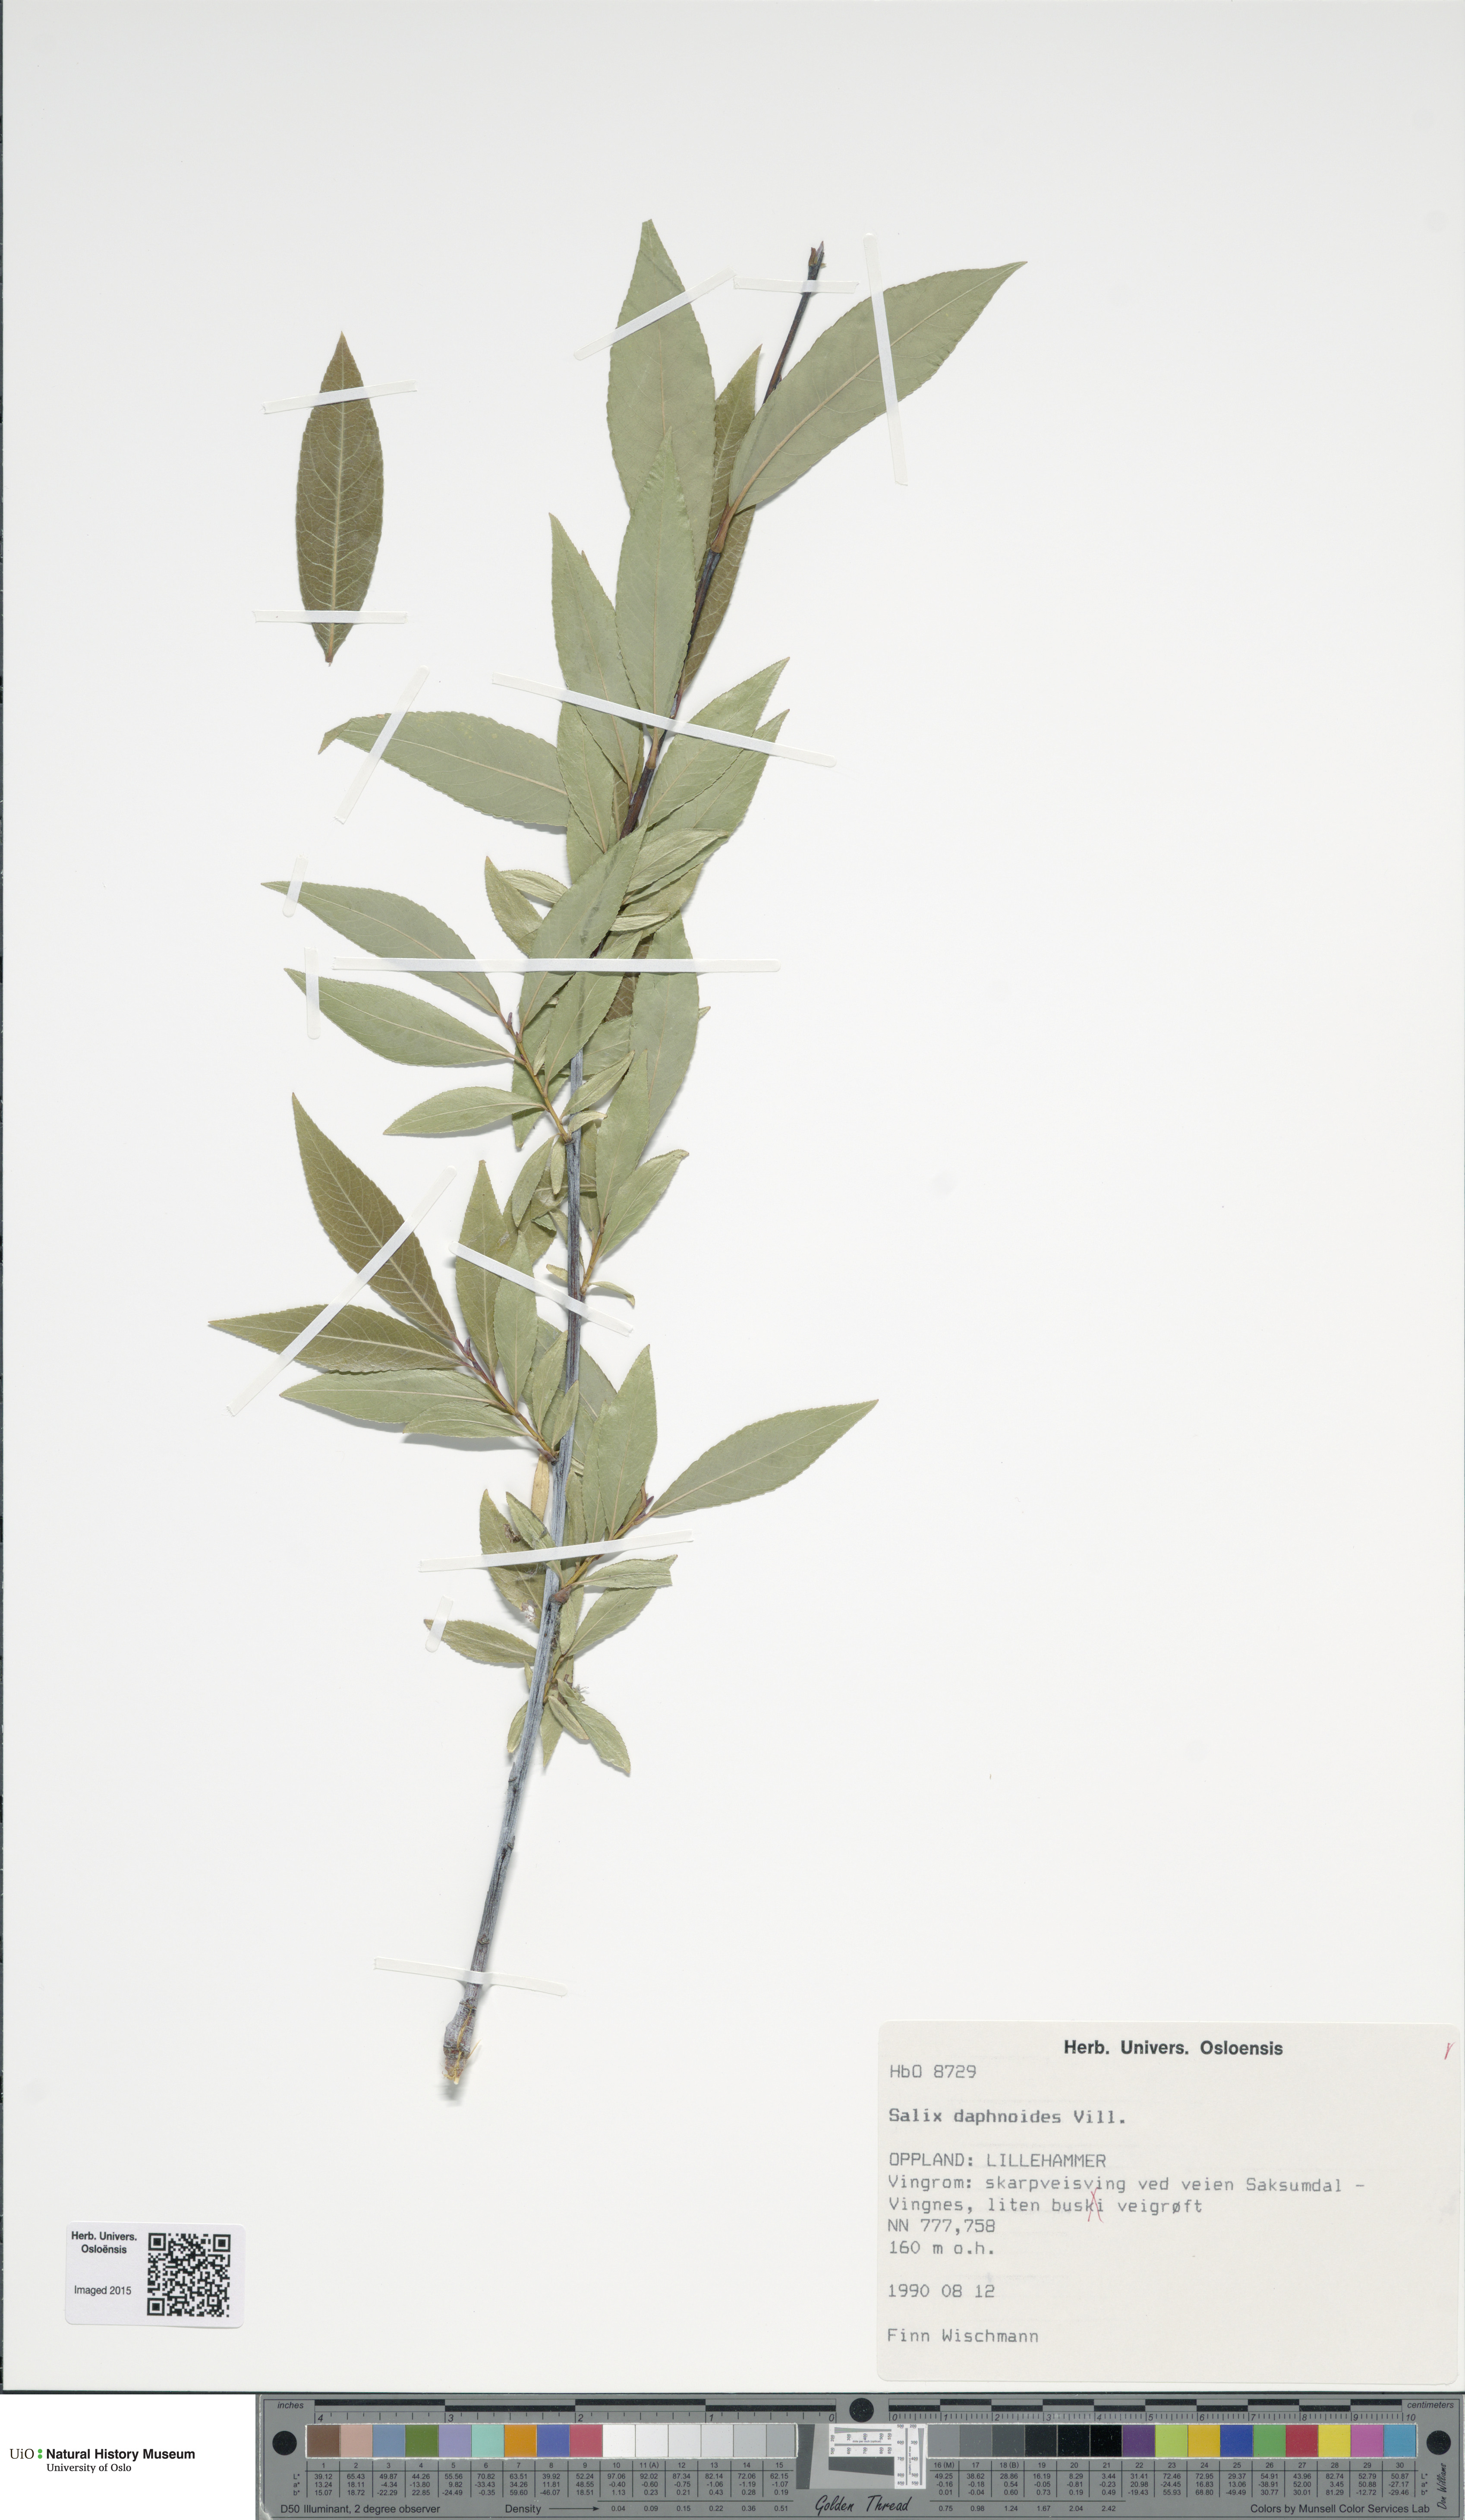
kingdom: Plantae
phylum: Tracheophyta
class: Magnoliopsida
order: Malpighiales
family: Salicaceae
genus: Salix
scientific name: Salix daphnoides
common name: European violet-willow
